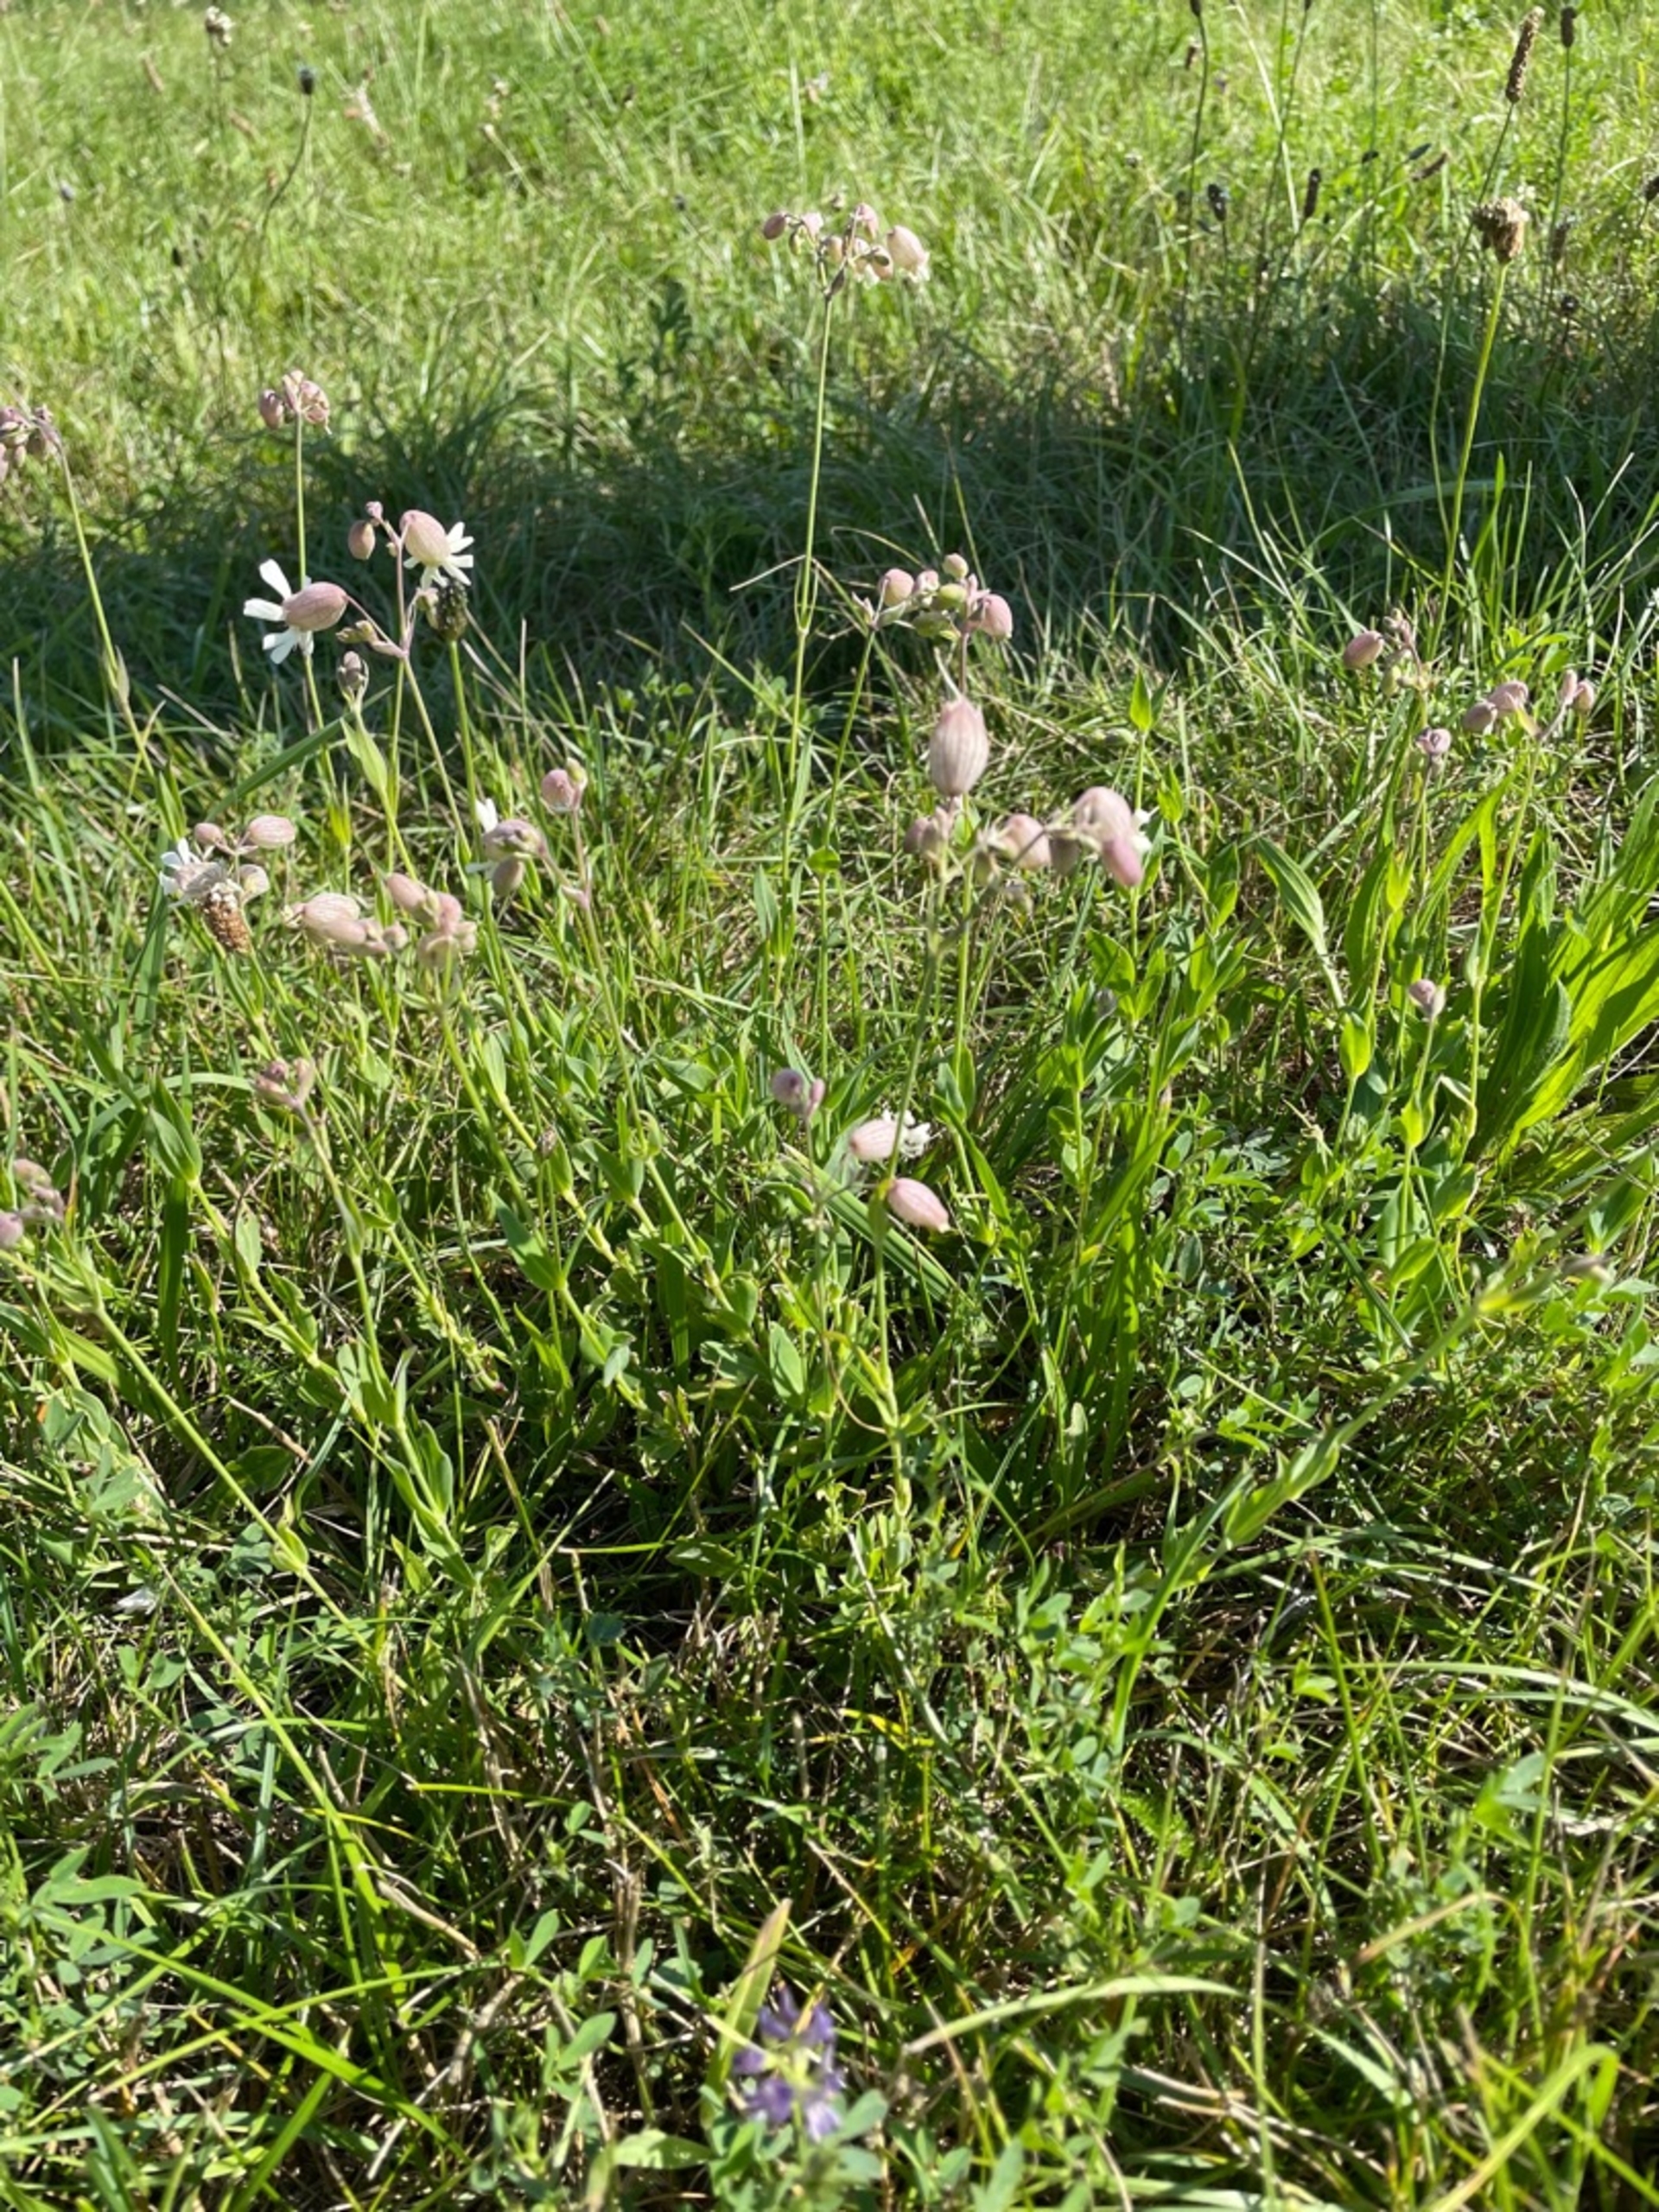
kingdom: Plantae
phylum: Tracheophyta
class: Magnoliopsida
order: Caryophyllales
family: Caryophyllaceae
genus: Silene
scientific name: Silene vulgaris
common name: Blæresmælde
